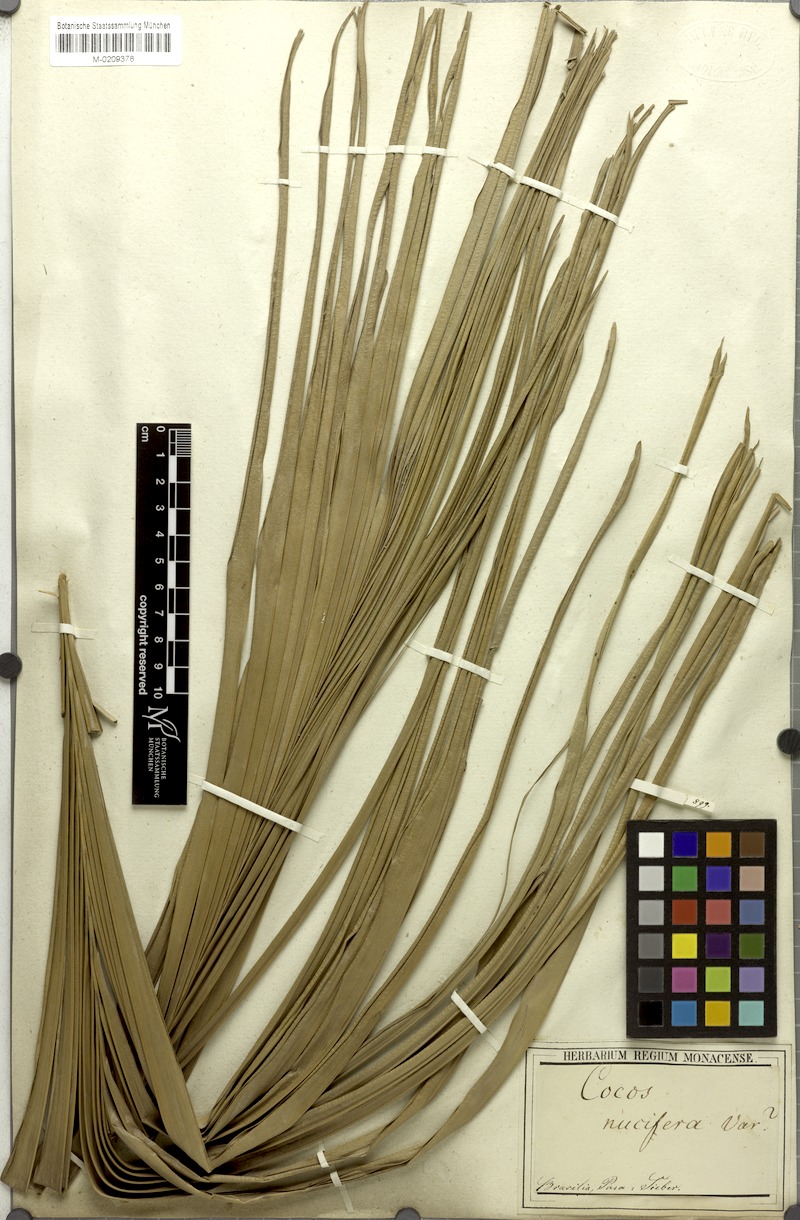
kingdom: Plantae
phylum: Tracheophyta
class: Liliopsida
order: Arecales
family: Arecaceae
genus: Cocos
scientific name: Cocos nucifera
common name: Coconut palm
